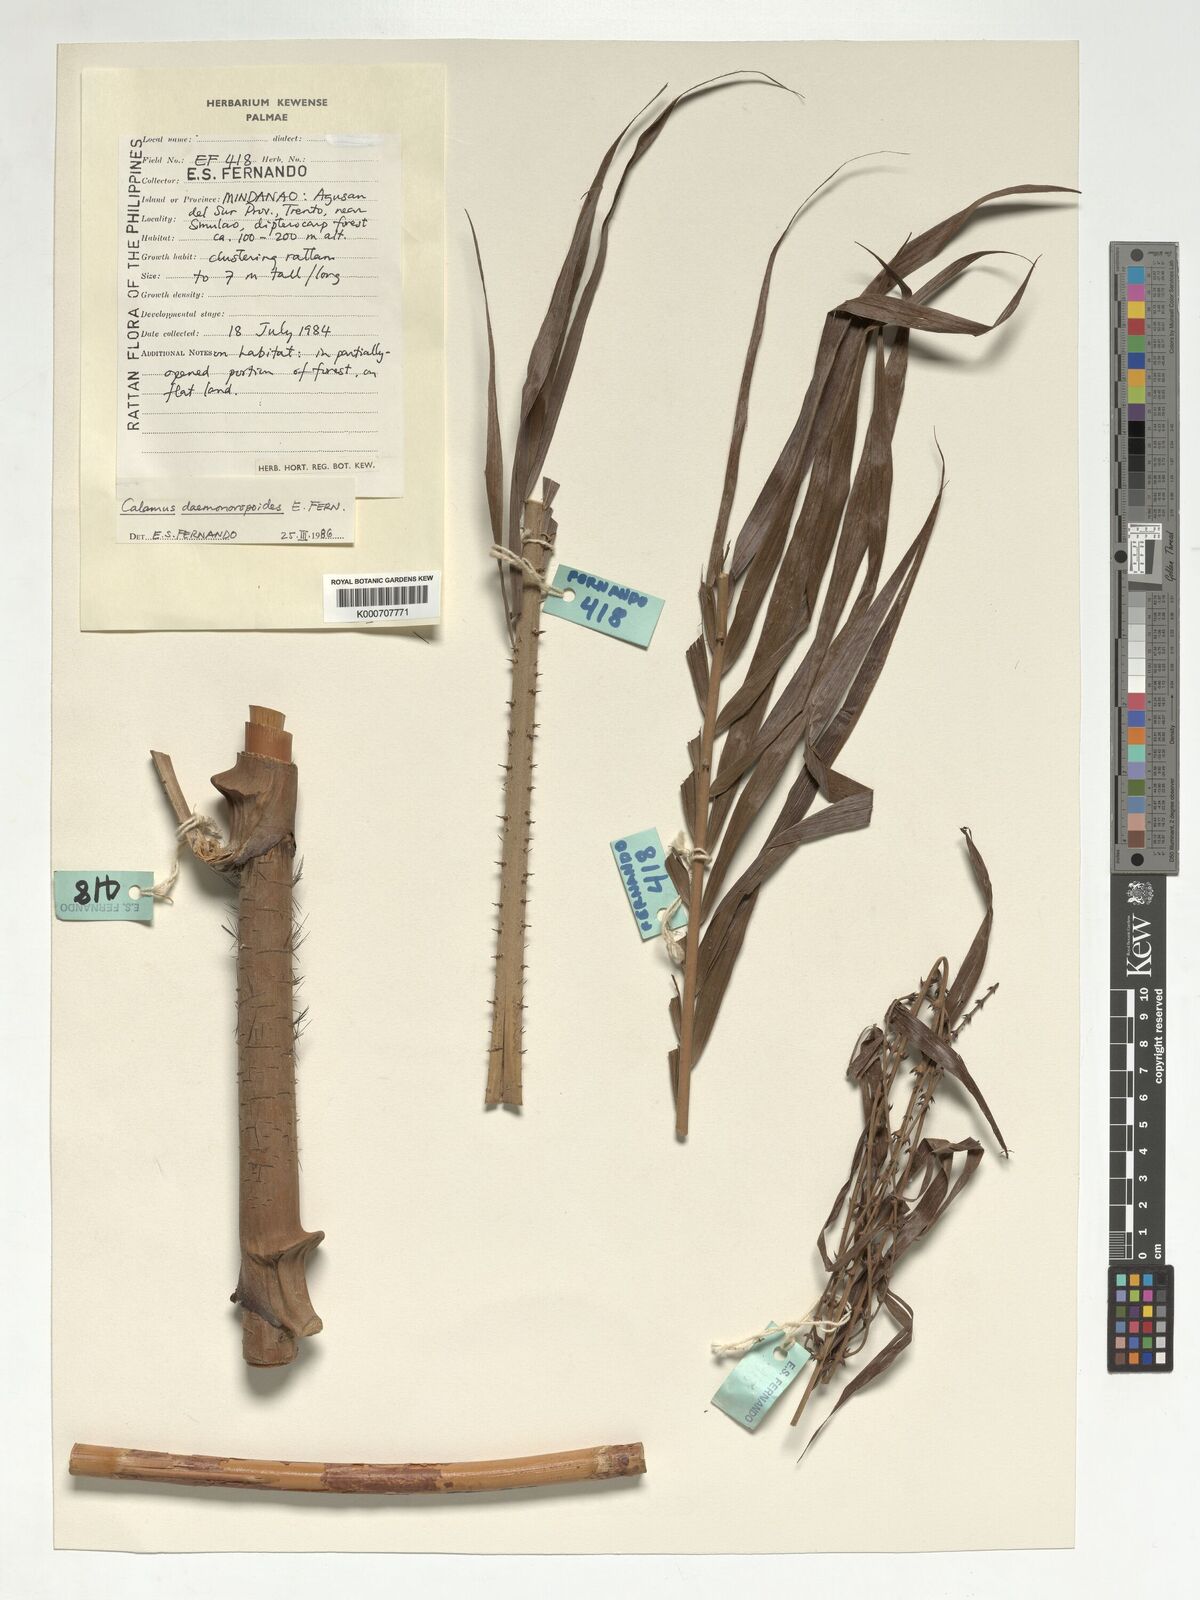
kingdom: Plantae
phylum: Tracheophyta
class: Liliopsida
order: Arecales
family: Arecaceae
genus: Calamus
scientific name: Calamus erinaceus
